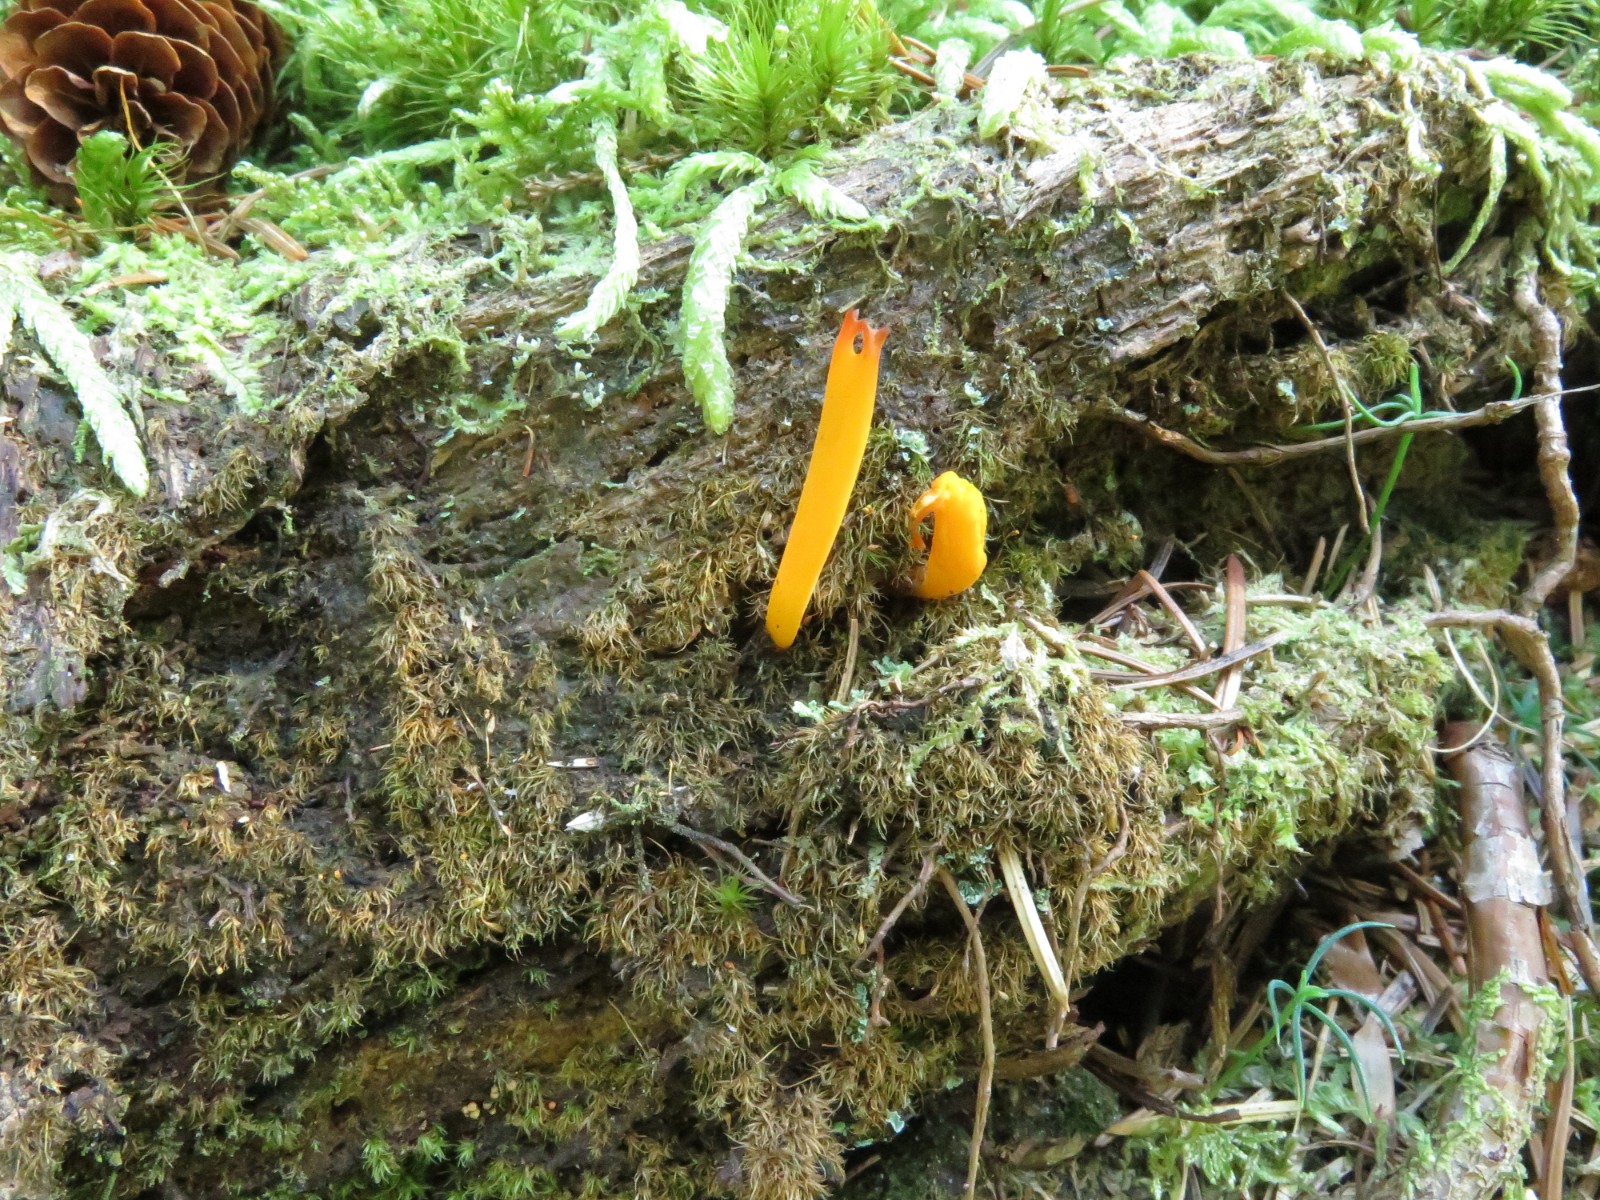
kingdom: Fungi
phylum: Basidiomycota
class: Dacrymycetes
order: Dacrymycetales
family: Dacrymycetaceae
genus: Calocera
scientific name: Calocera viscosa
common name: almindelig guldgaffel
